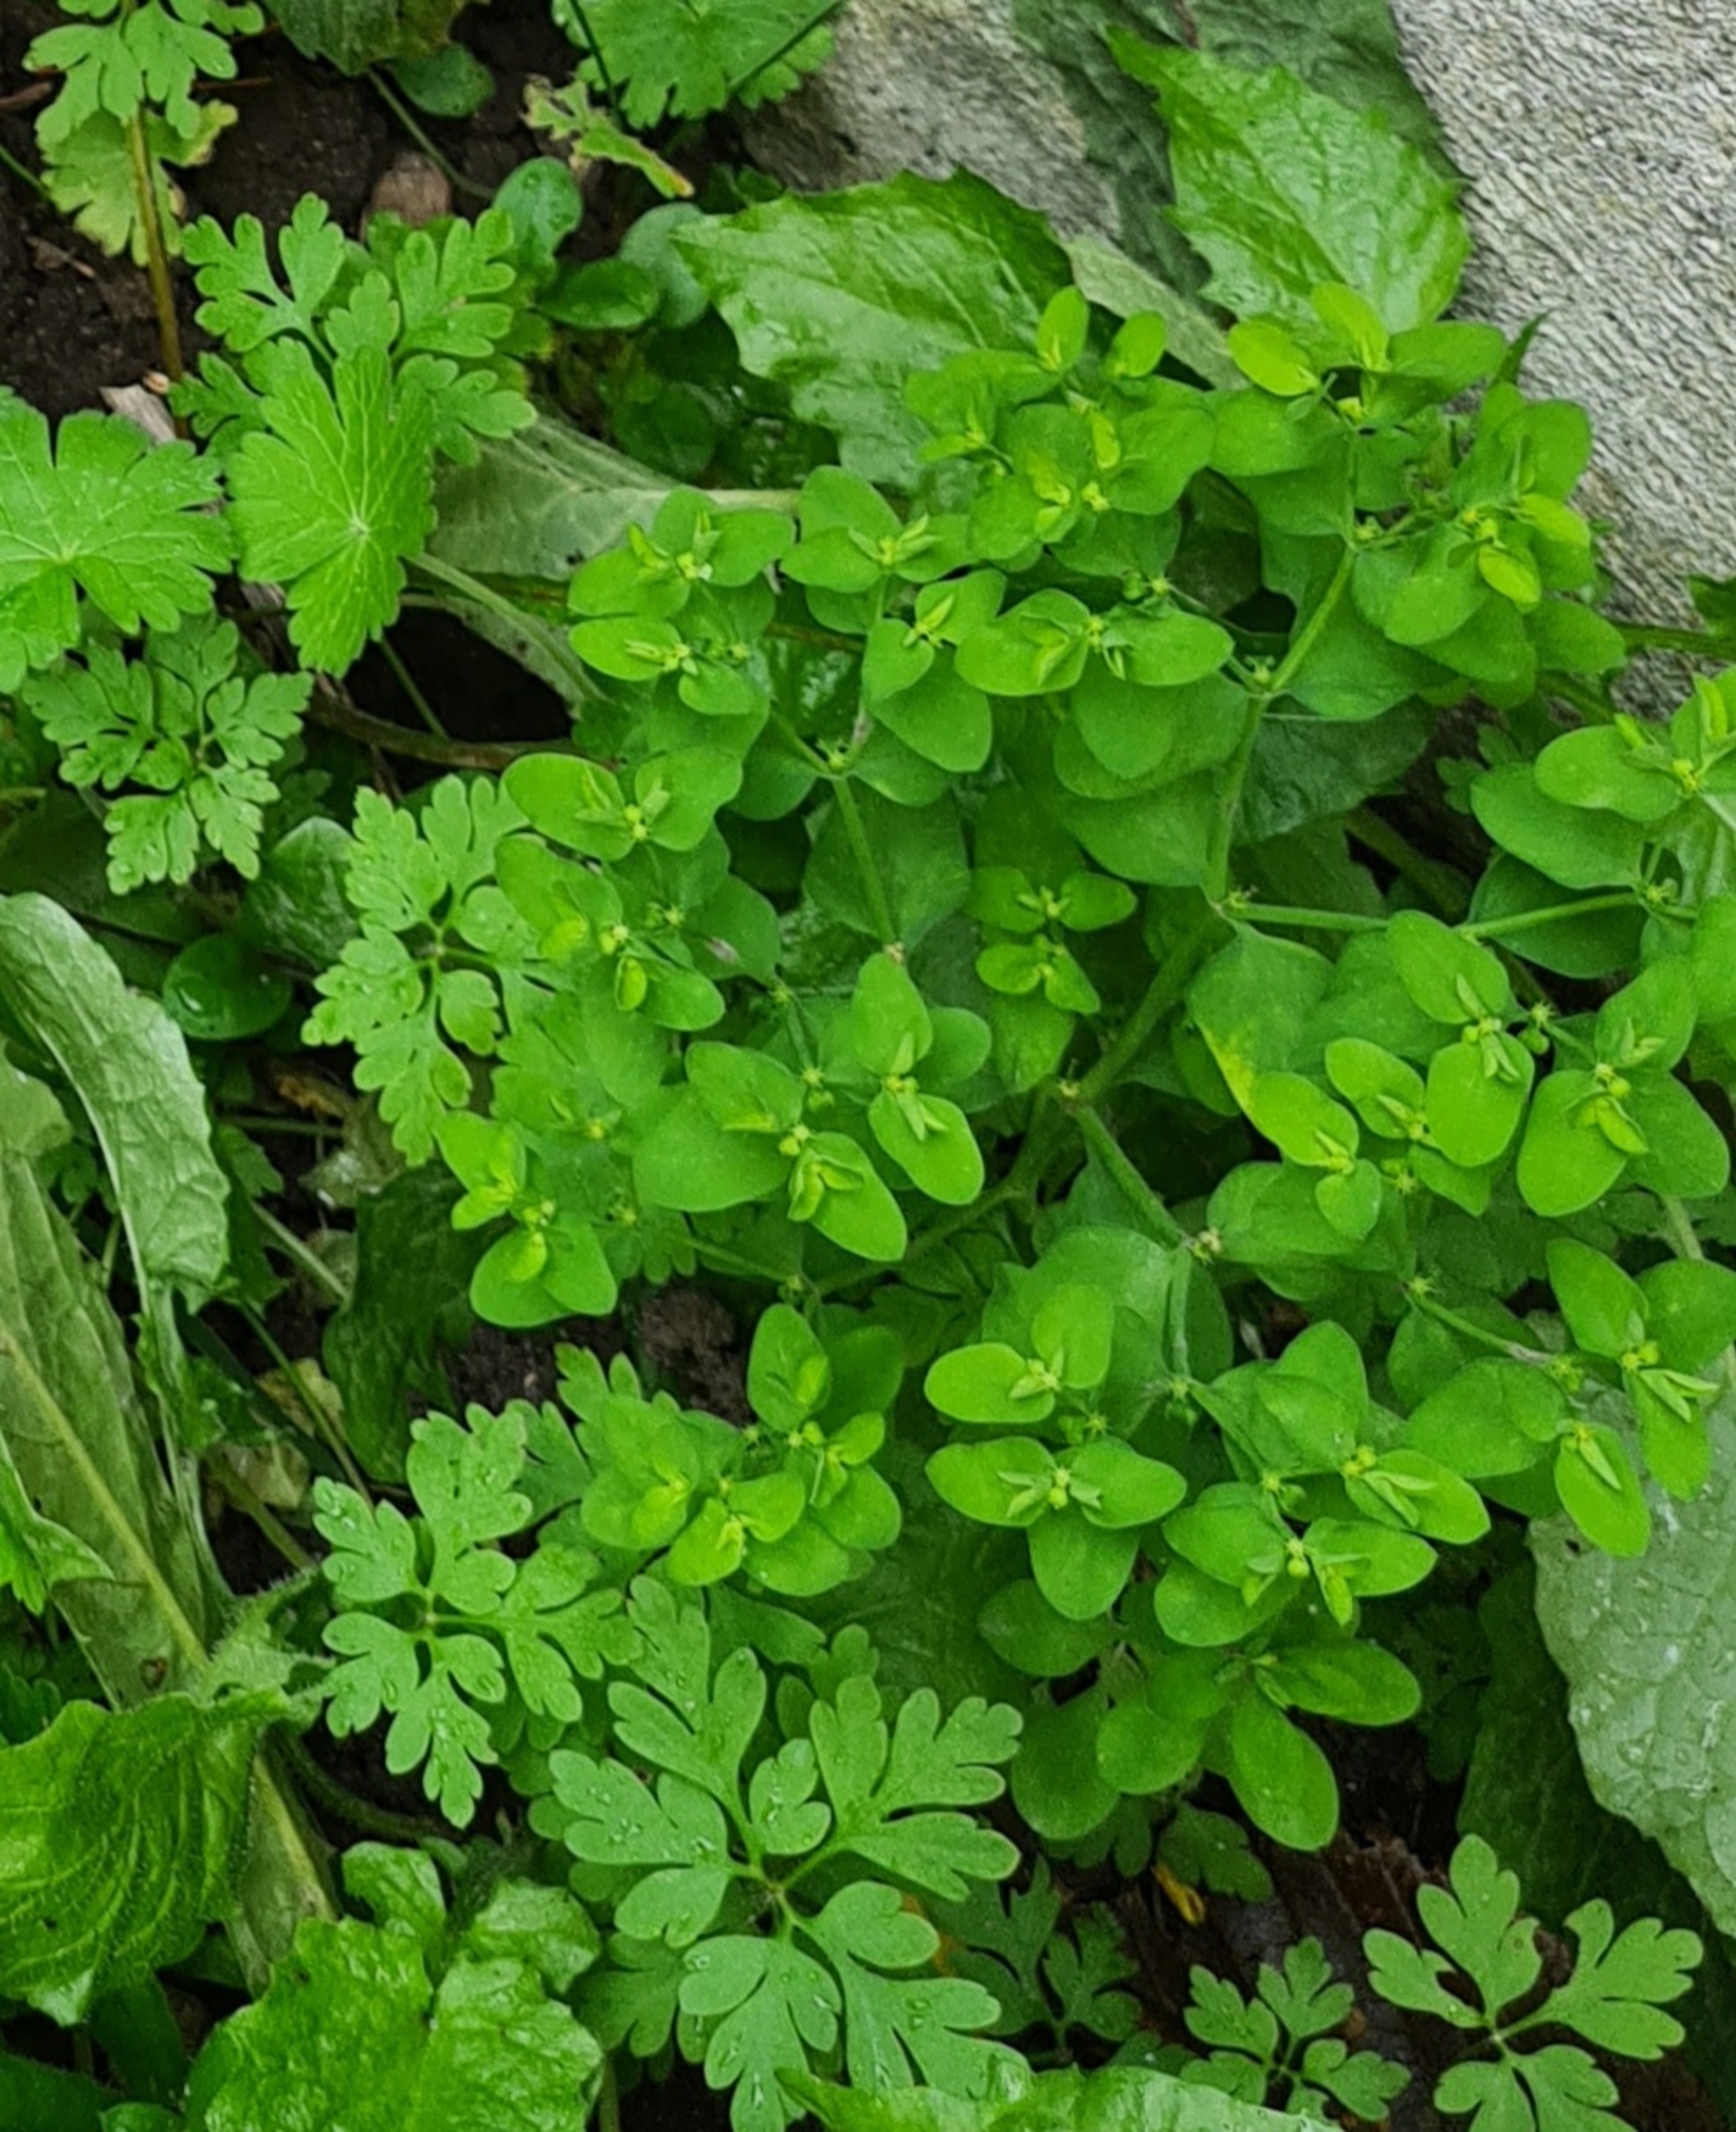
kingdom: Plantae
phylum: Tracheophyta
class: Magnoliopsida
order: Malpighiales
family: Euphorbiaceae
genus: Euphorbia
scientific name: Euphorbia peplus
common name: Gaffel-vortemælk
